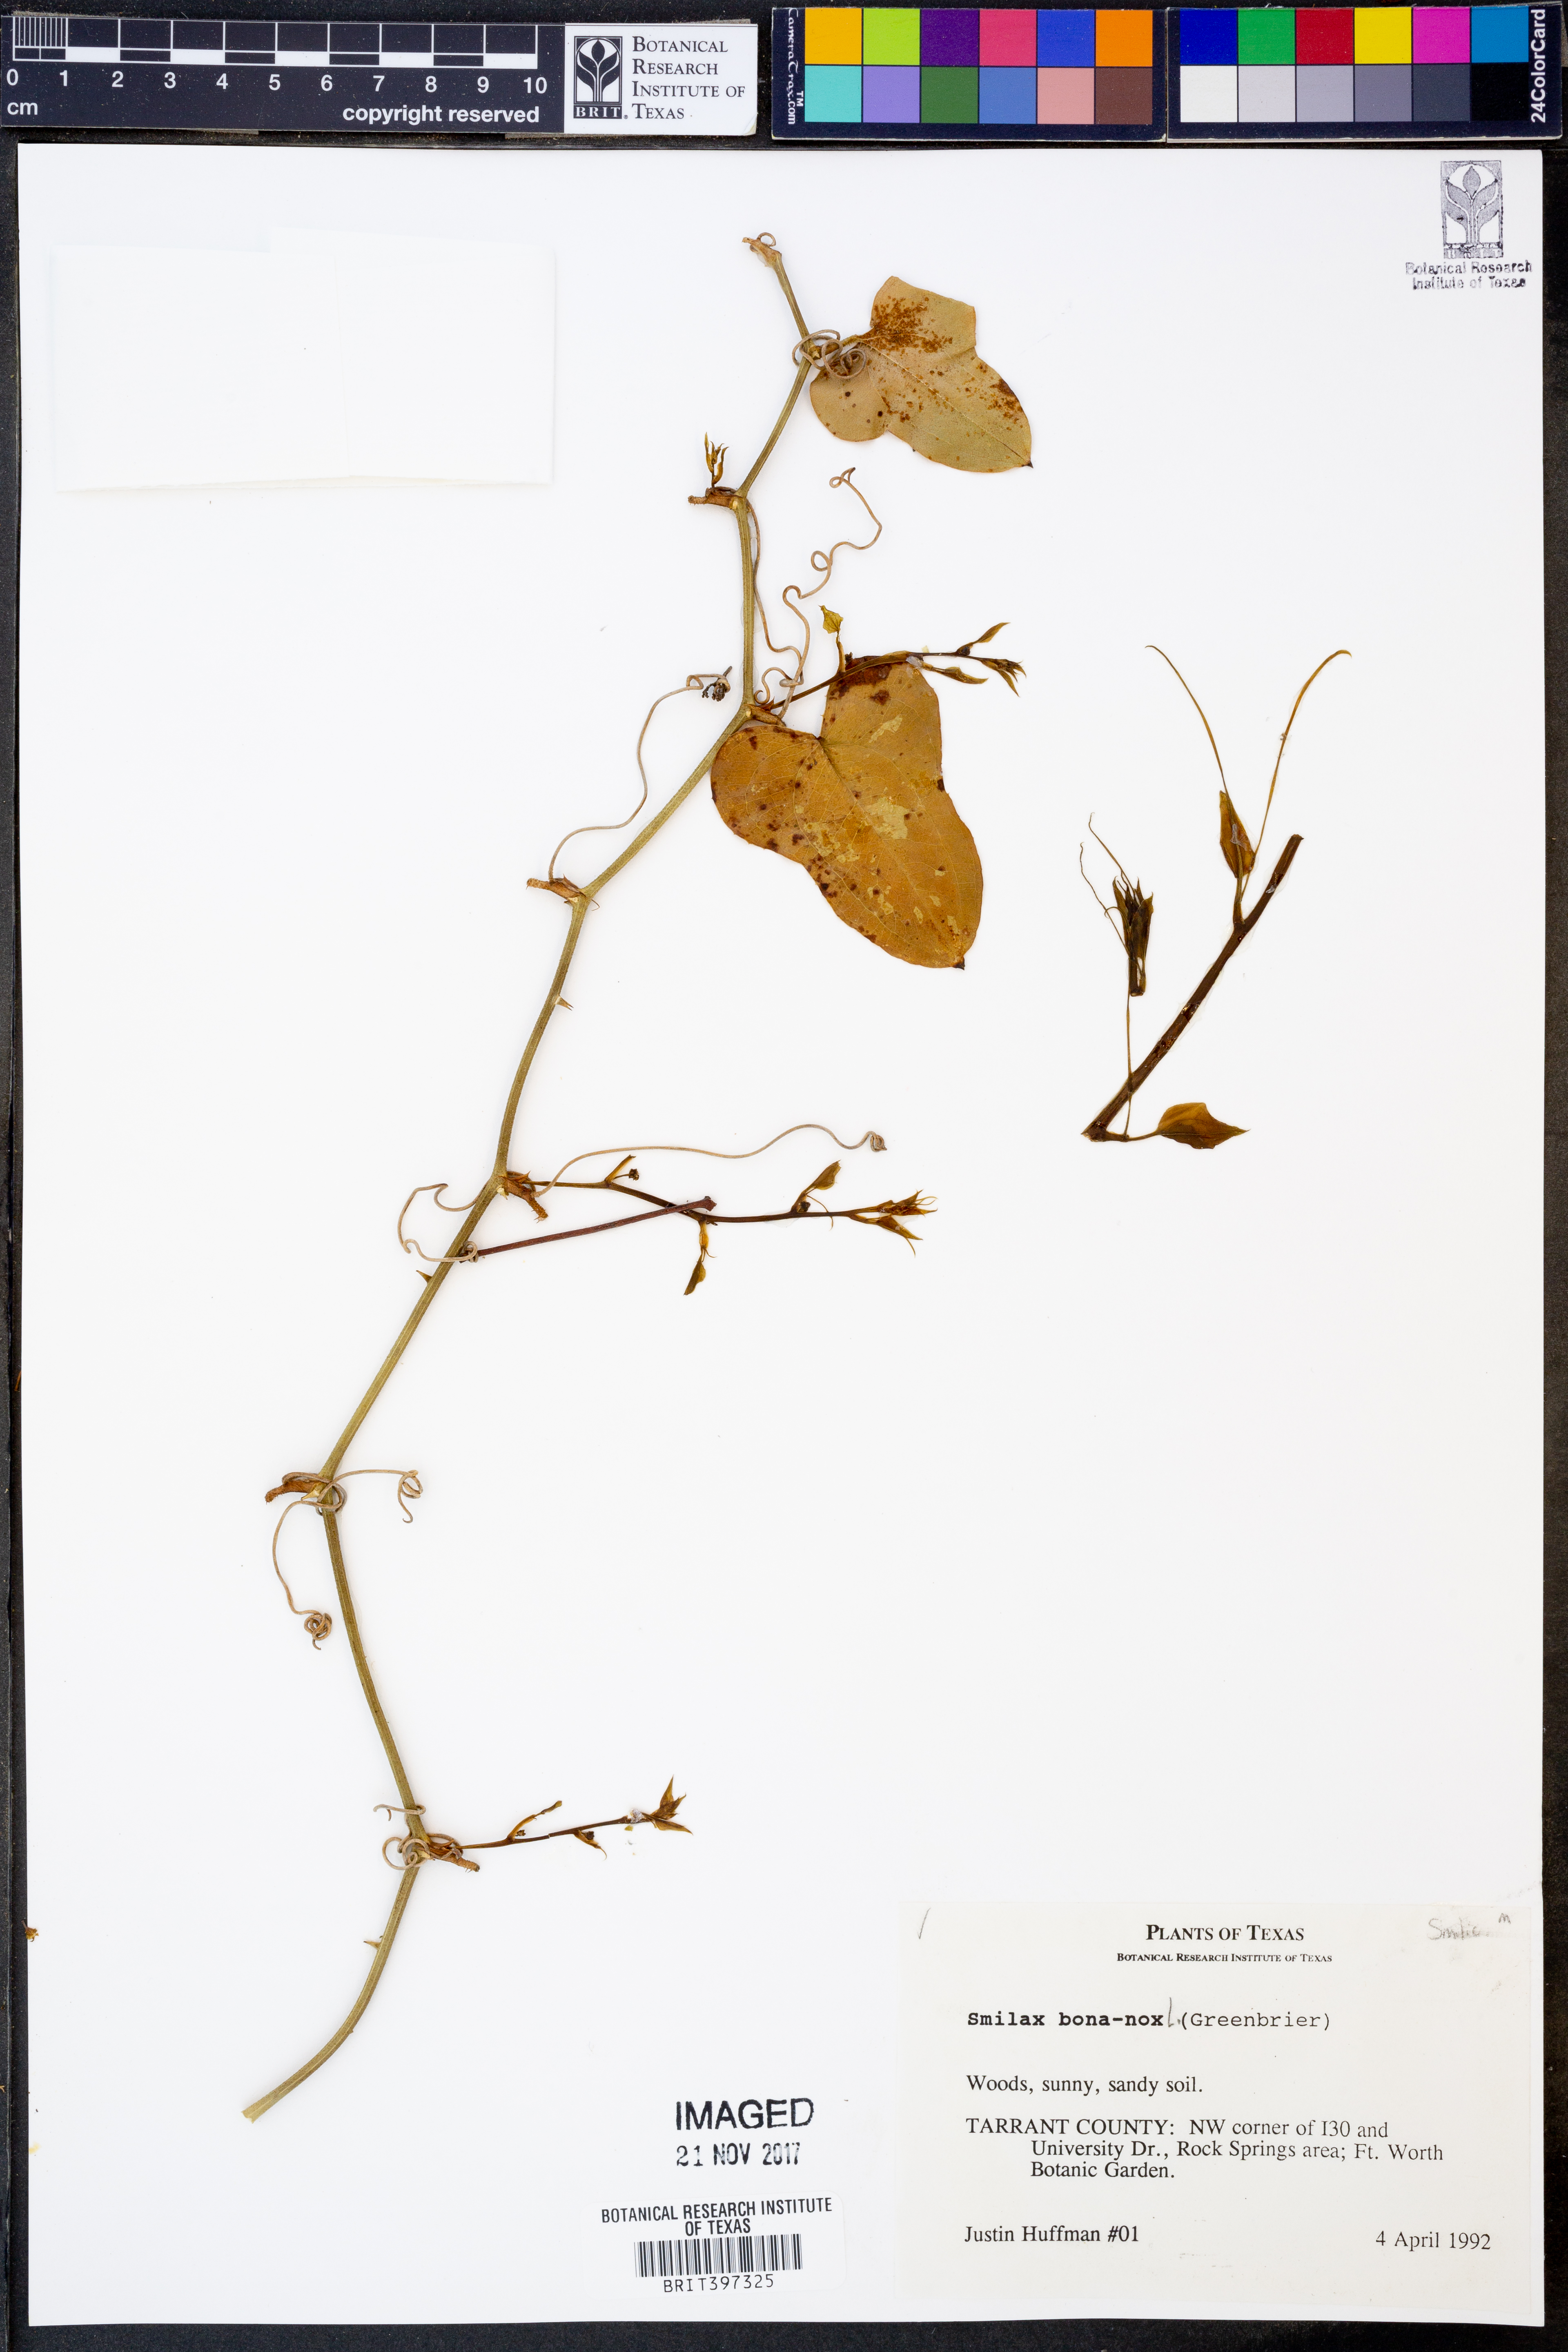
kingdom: Plantae
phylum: Tracheophyta
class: Liliopsida
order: Liliales
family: Smilacaceae
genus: Smilax
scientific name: Smilax bona-nox
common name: Catbrier
